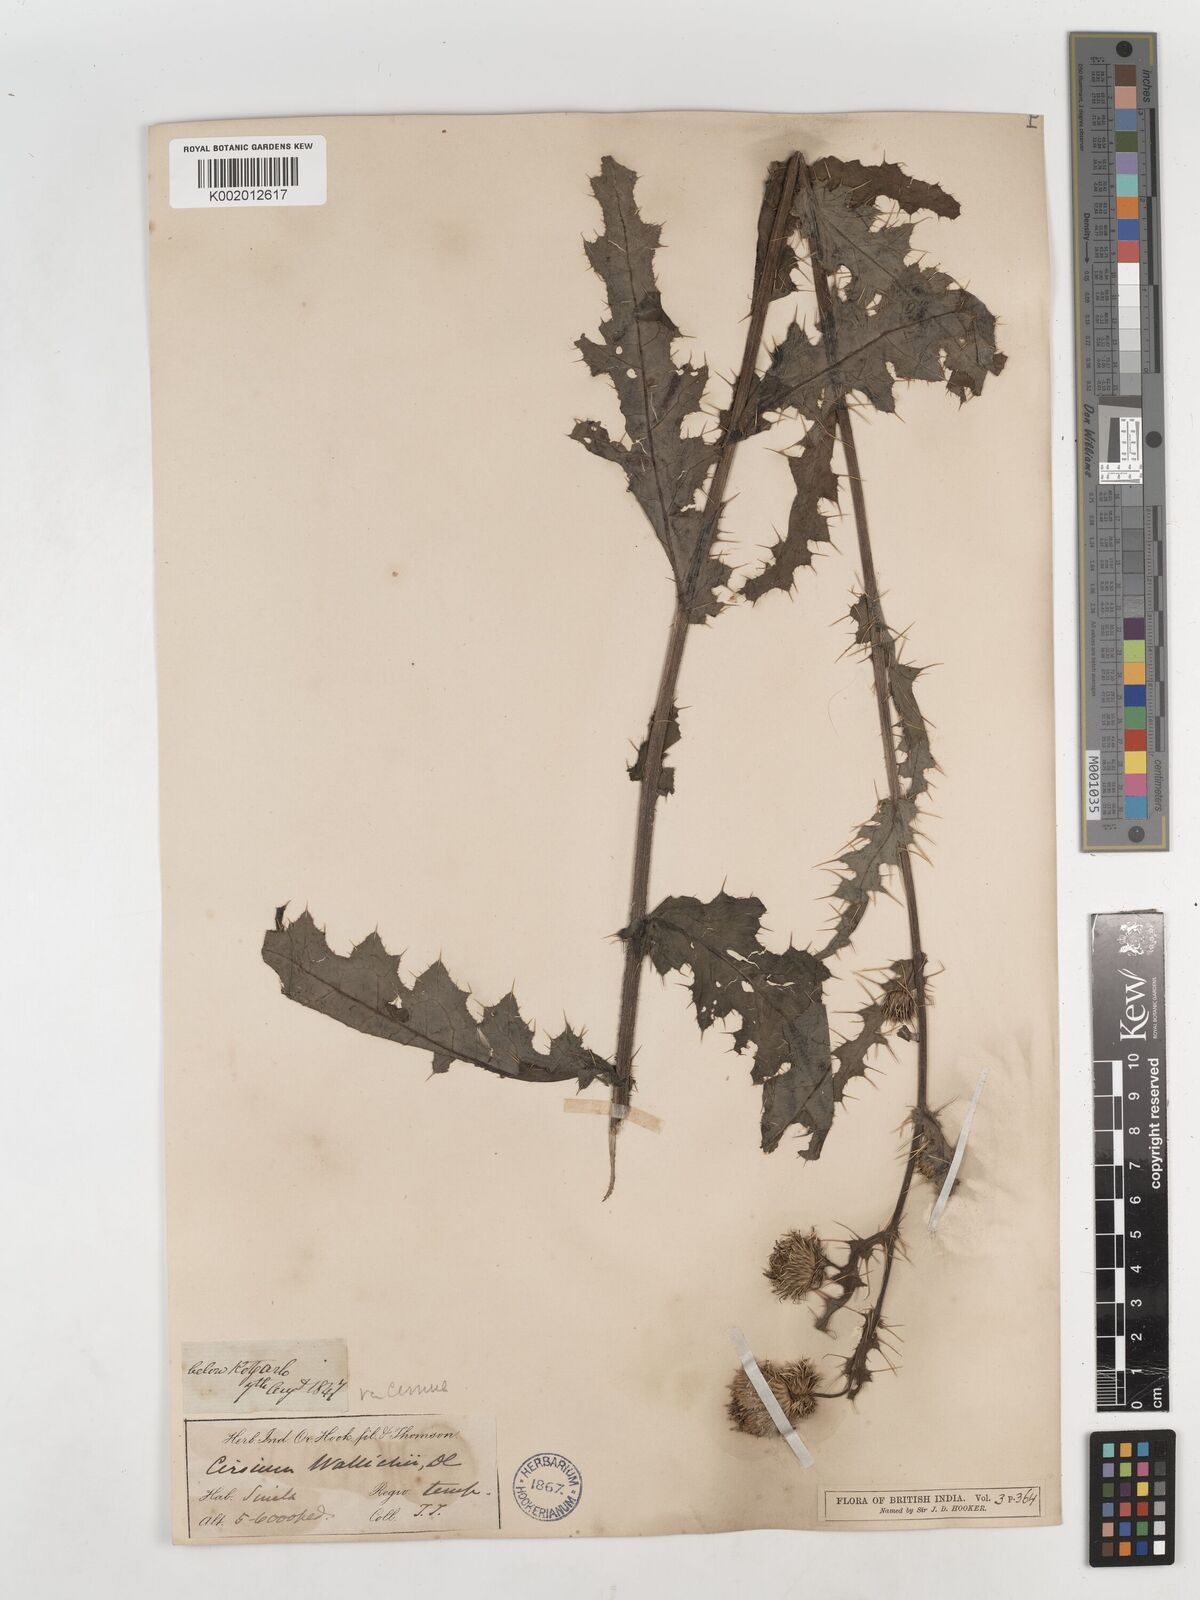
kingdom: Plantae
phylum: Tracheophyta
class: Magnoliopsida
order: Asterales
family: Asteraceae
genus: Cirsium
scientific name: Cirsium wallichii
